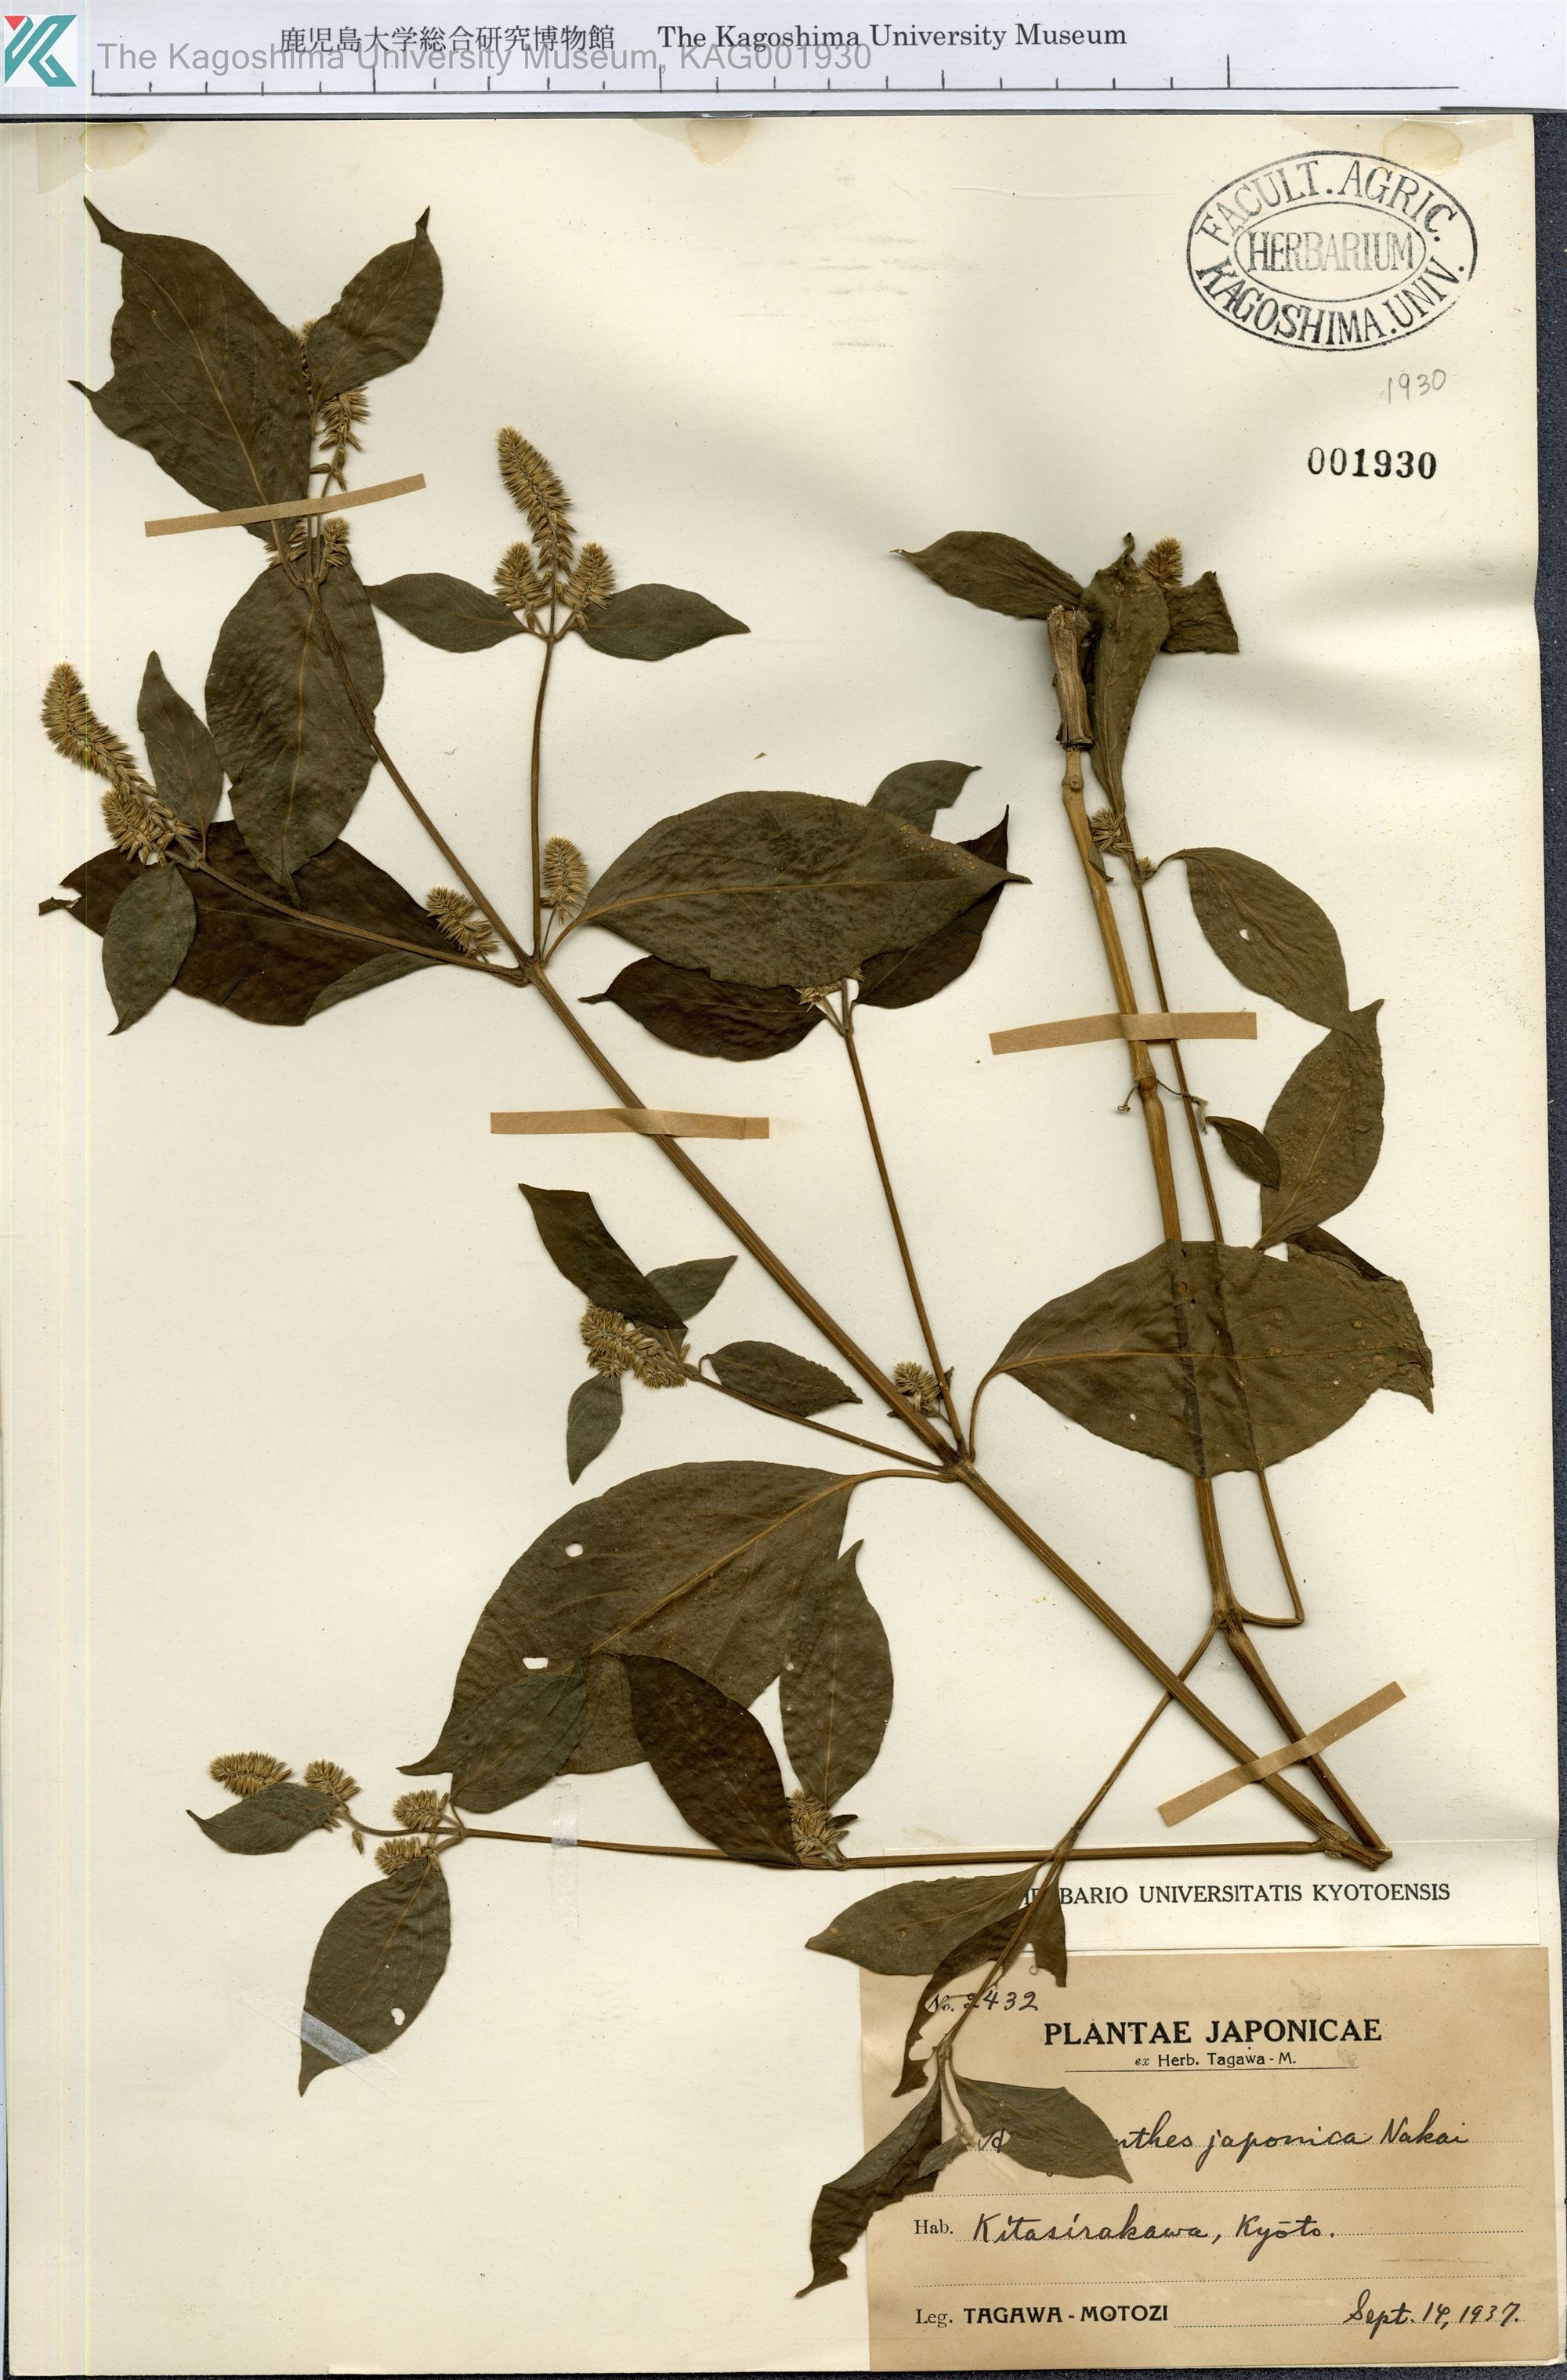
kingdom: Plantae
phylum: Tracheophyta
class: Magnoliopsida
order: Caryophyllales
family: Amaranthaceae
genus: Achyranthes
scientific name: Achyranthes bidentata
